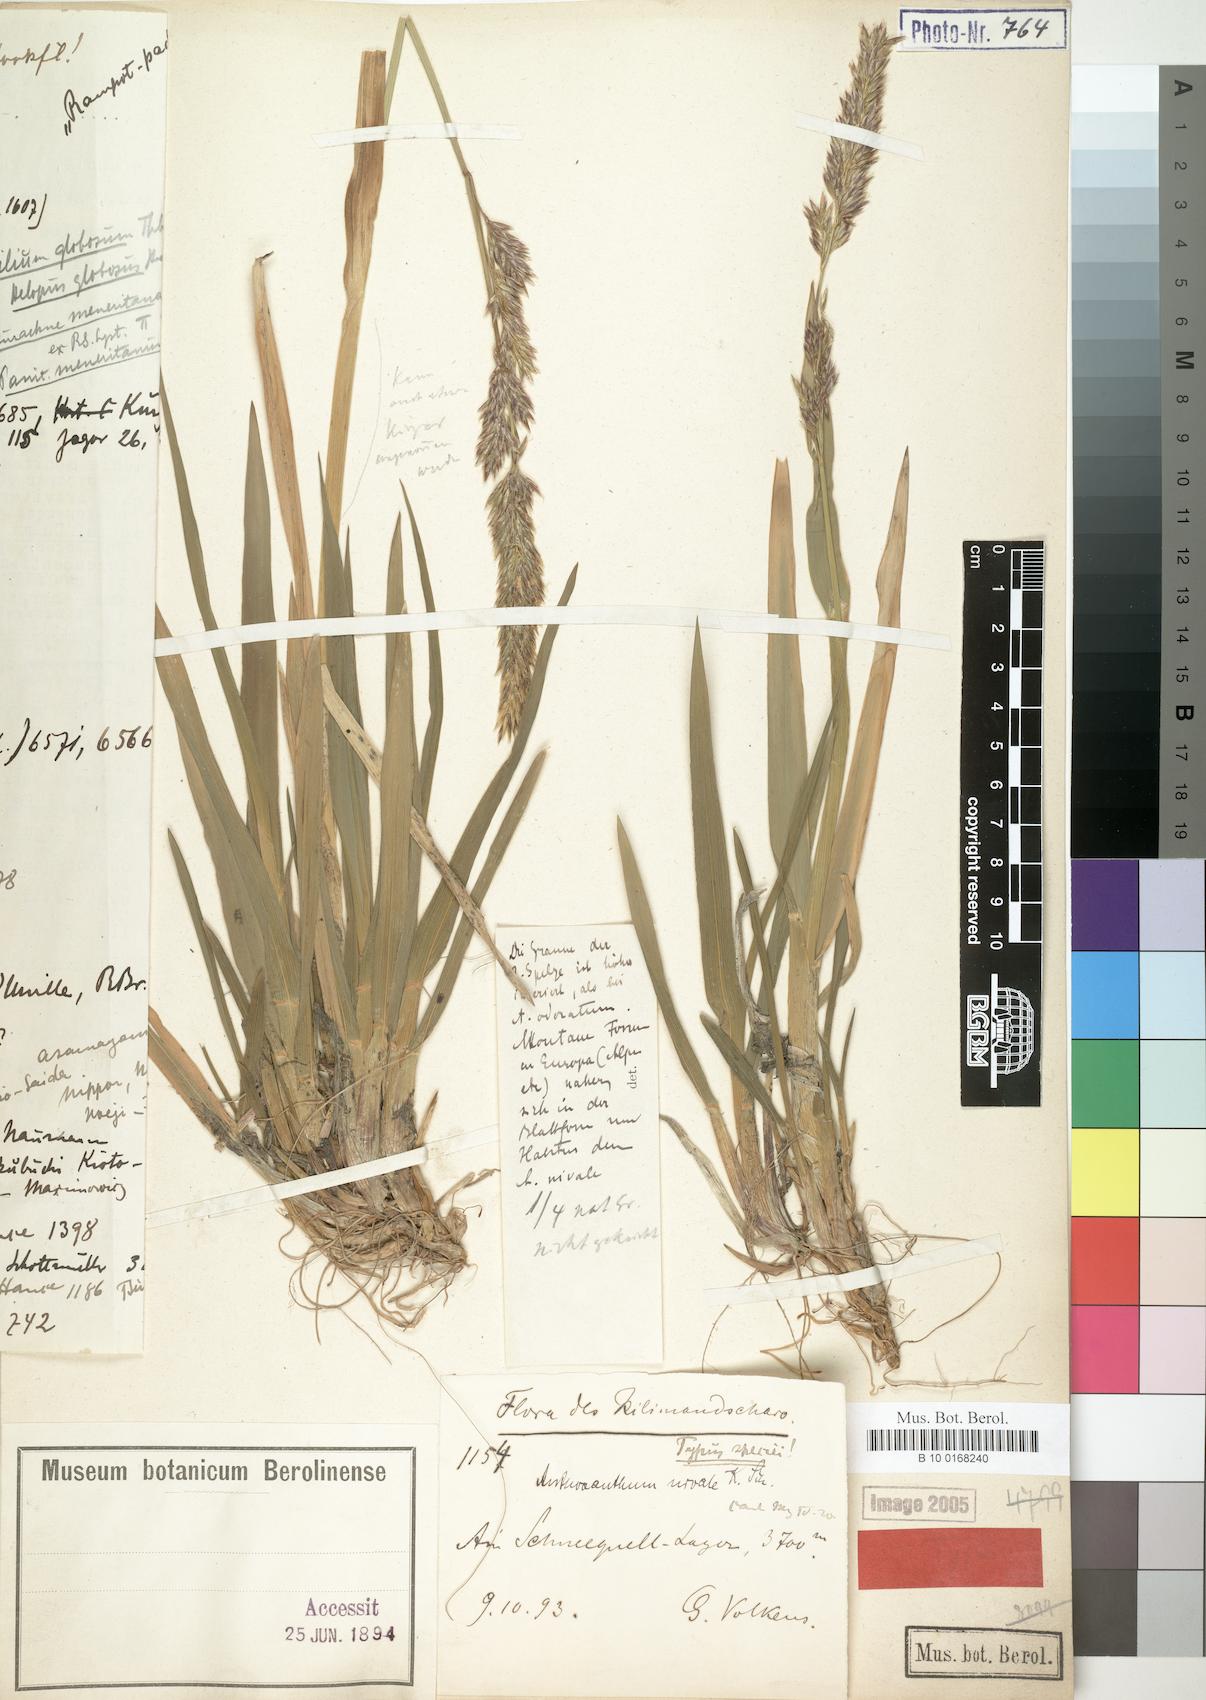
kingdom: Plantae
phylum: Tracheophyta
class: Liliopsida
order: Poales
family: Poaceae
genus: Anthoxanthum
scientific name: Anthoxanthum nivale
